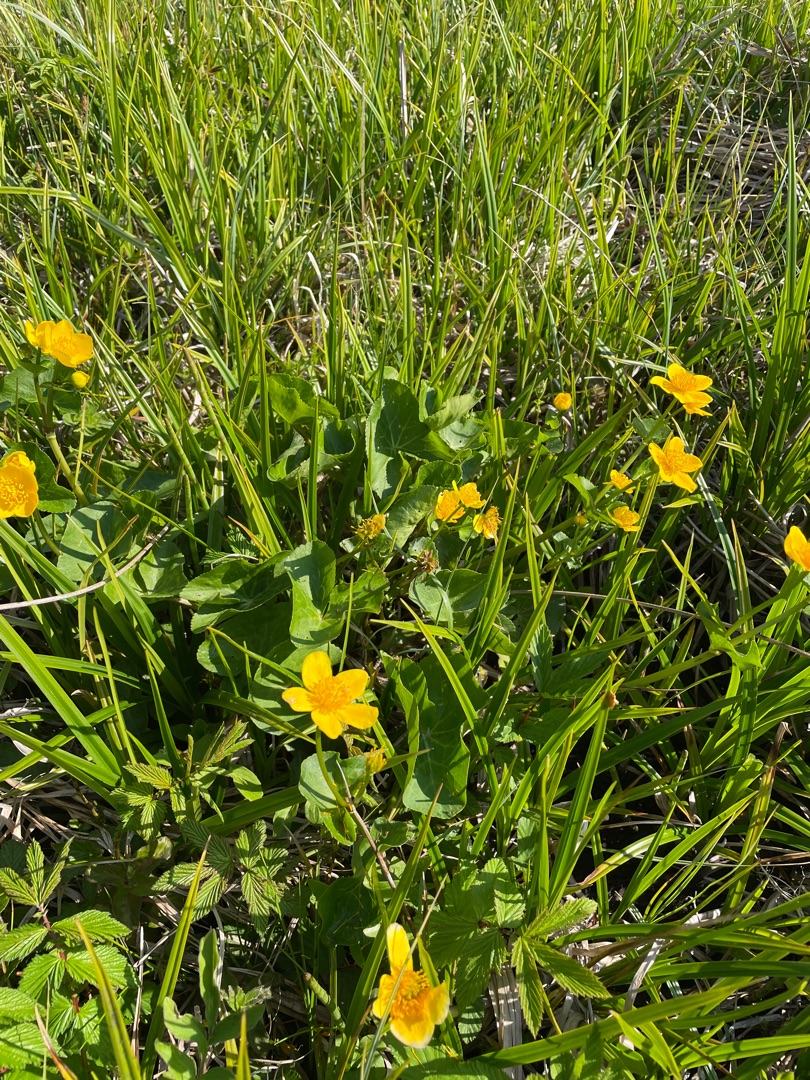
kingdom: Plantae
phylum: Tracheophyta
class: Magnoliopsida
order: Ranunculales
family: Ranunculaceae
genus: Caltha
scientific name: Caltha palustris
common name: Eng-kabbeleje
